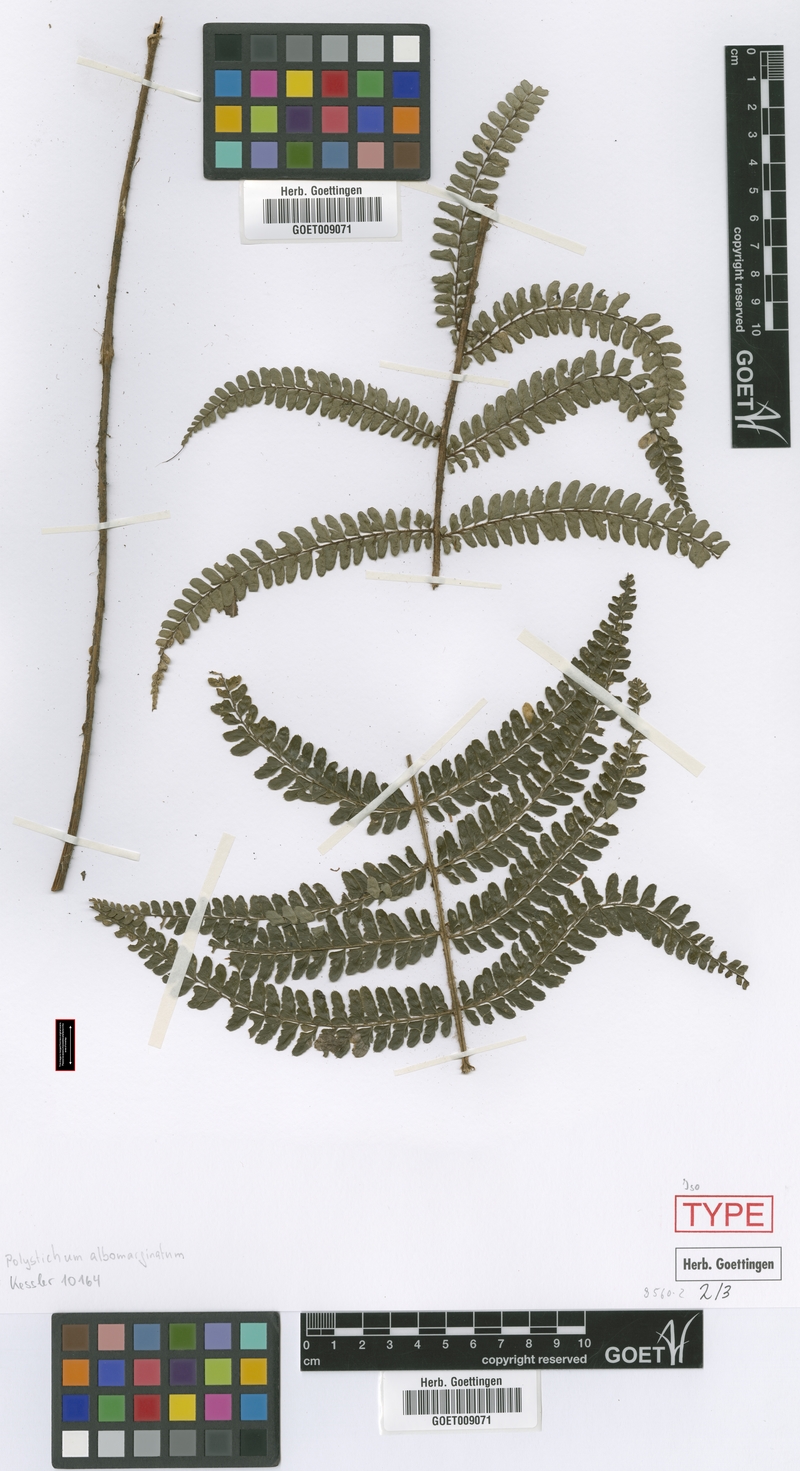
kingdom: Plantae
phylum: Tracheophyta
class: Polypodiopsida
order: Polypodiales
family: Dryopteridaceae
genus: Polystichum
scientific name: Polystichum albomarginatum
